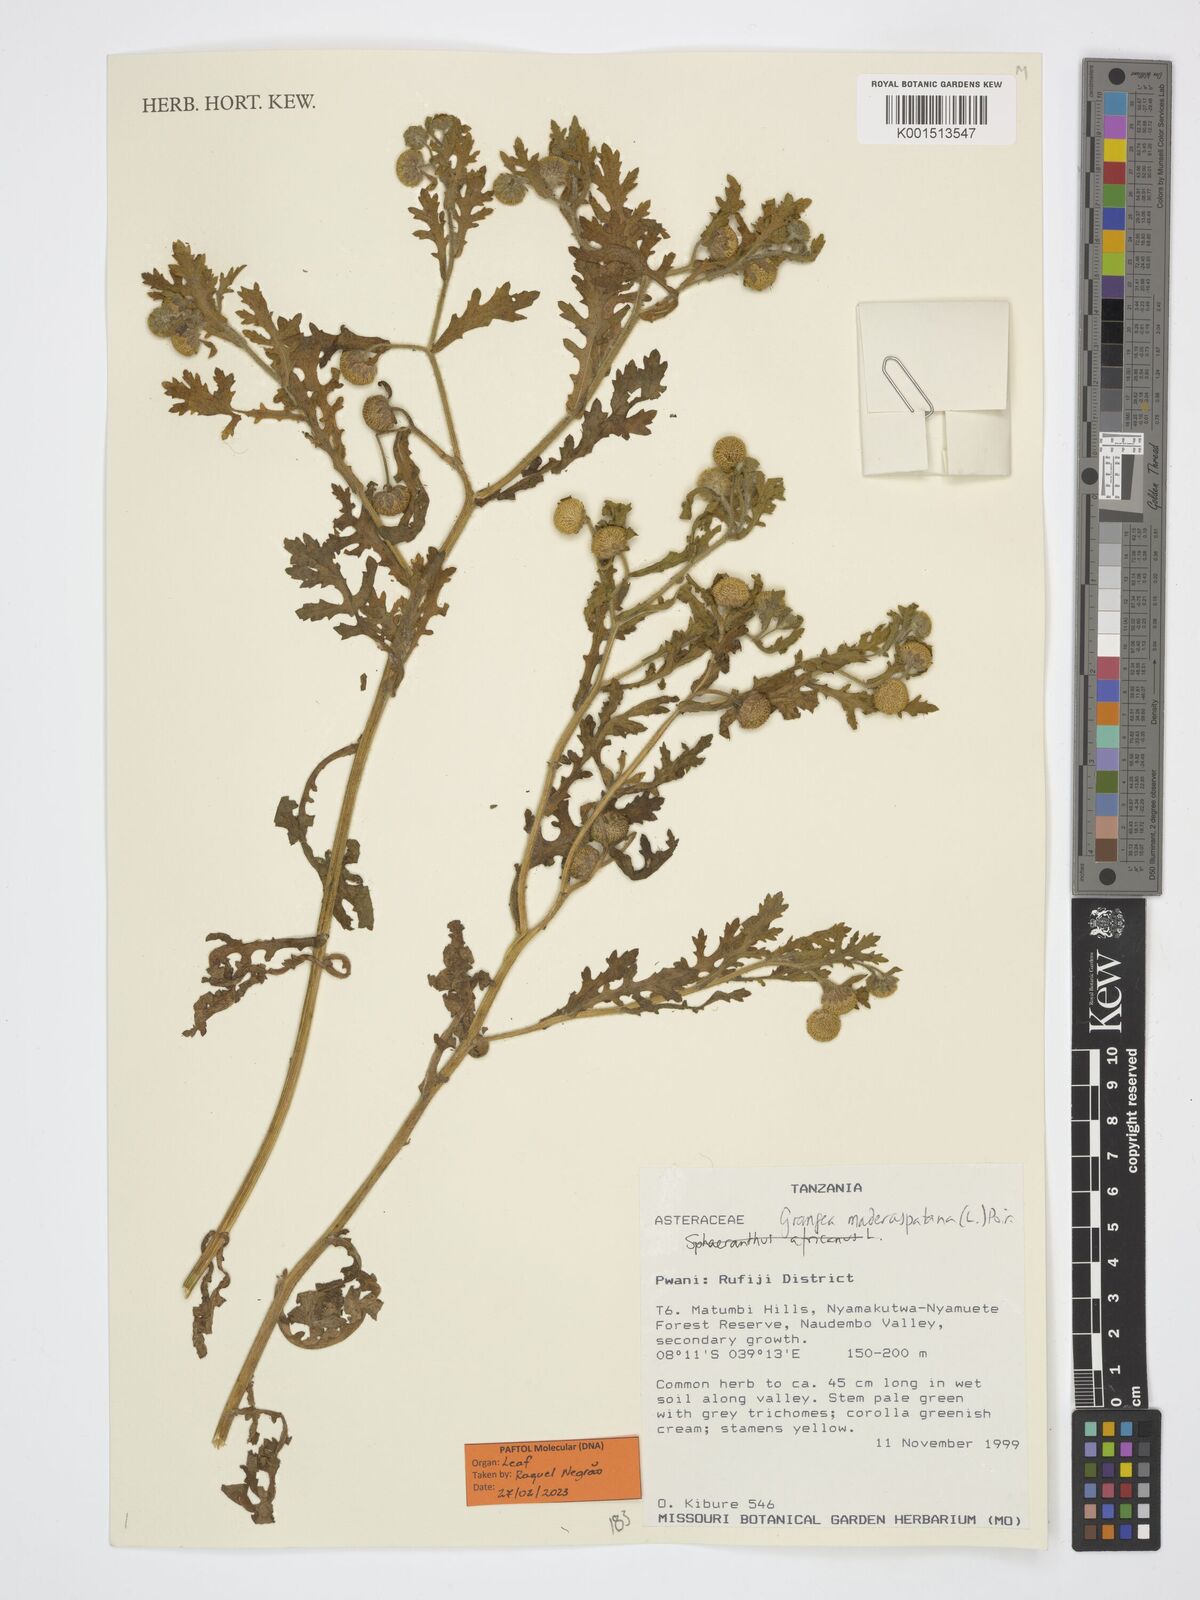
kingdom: Plantae
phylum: Tracheophyta
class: Magnoliopsida
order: Asterales
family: Asteraceae
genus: Grangea
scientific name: Grangea maderaspatana
